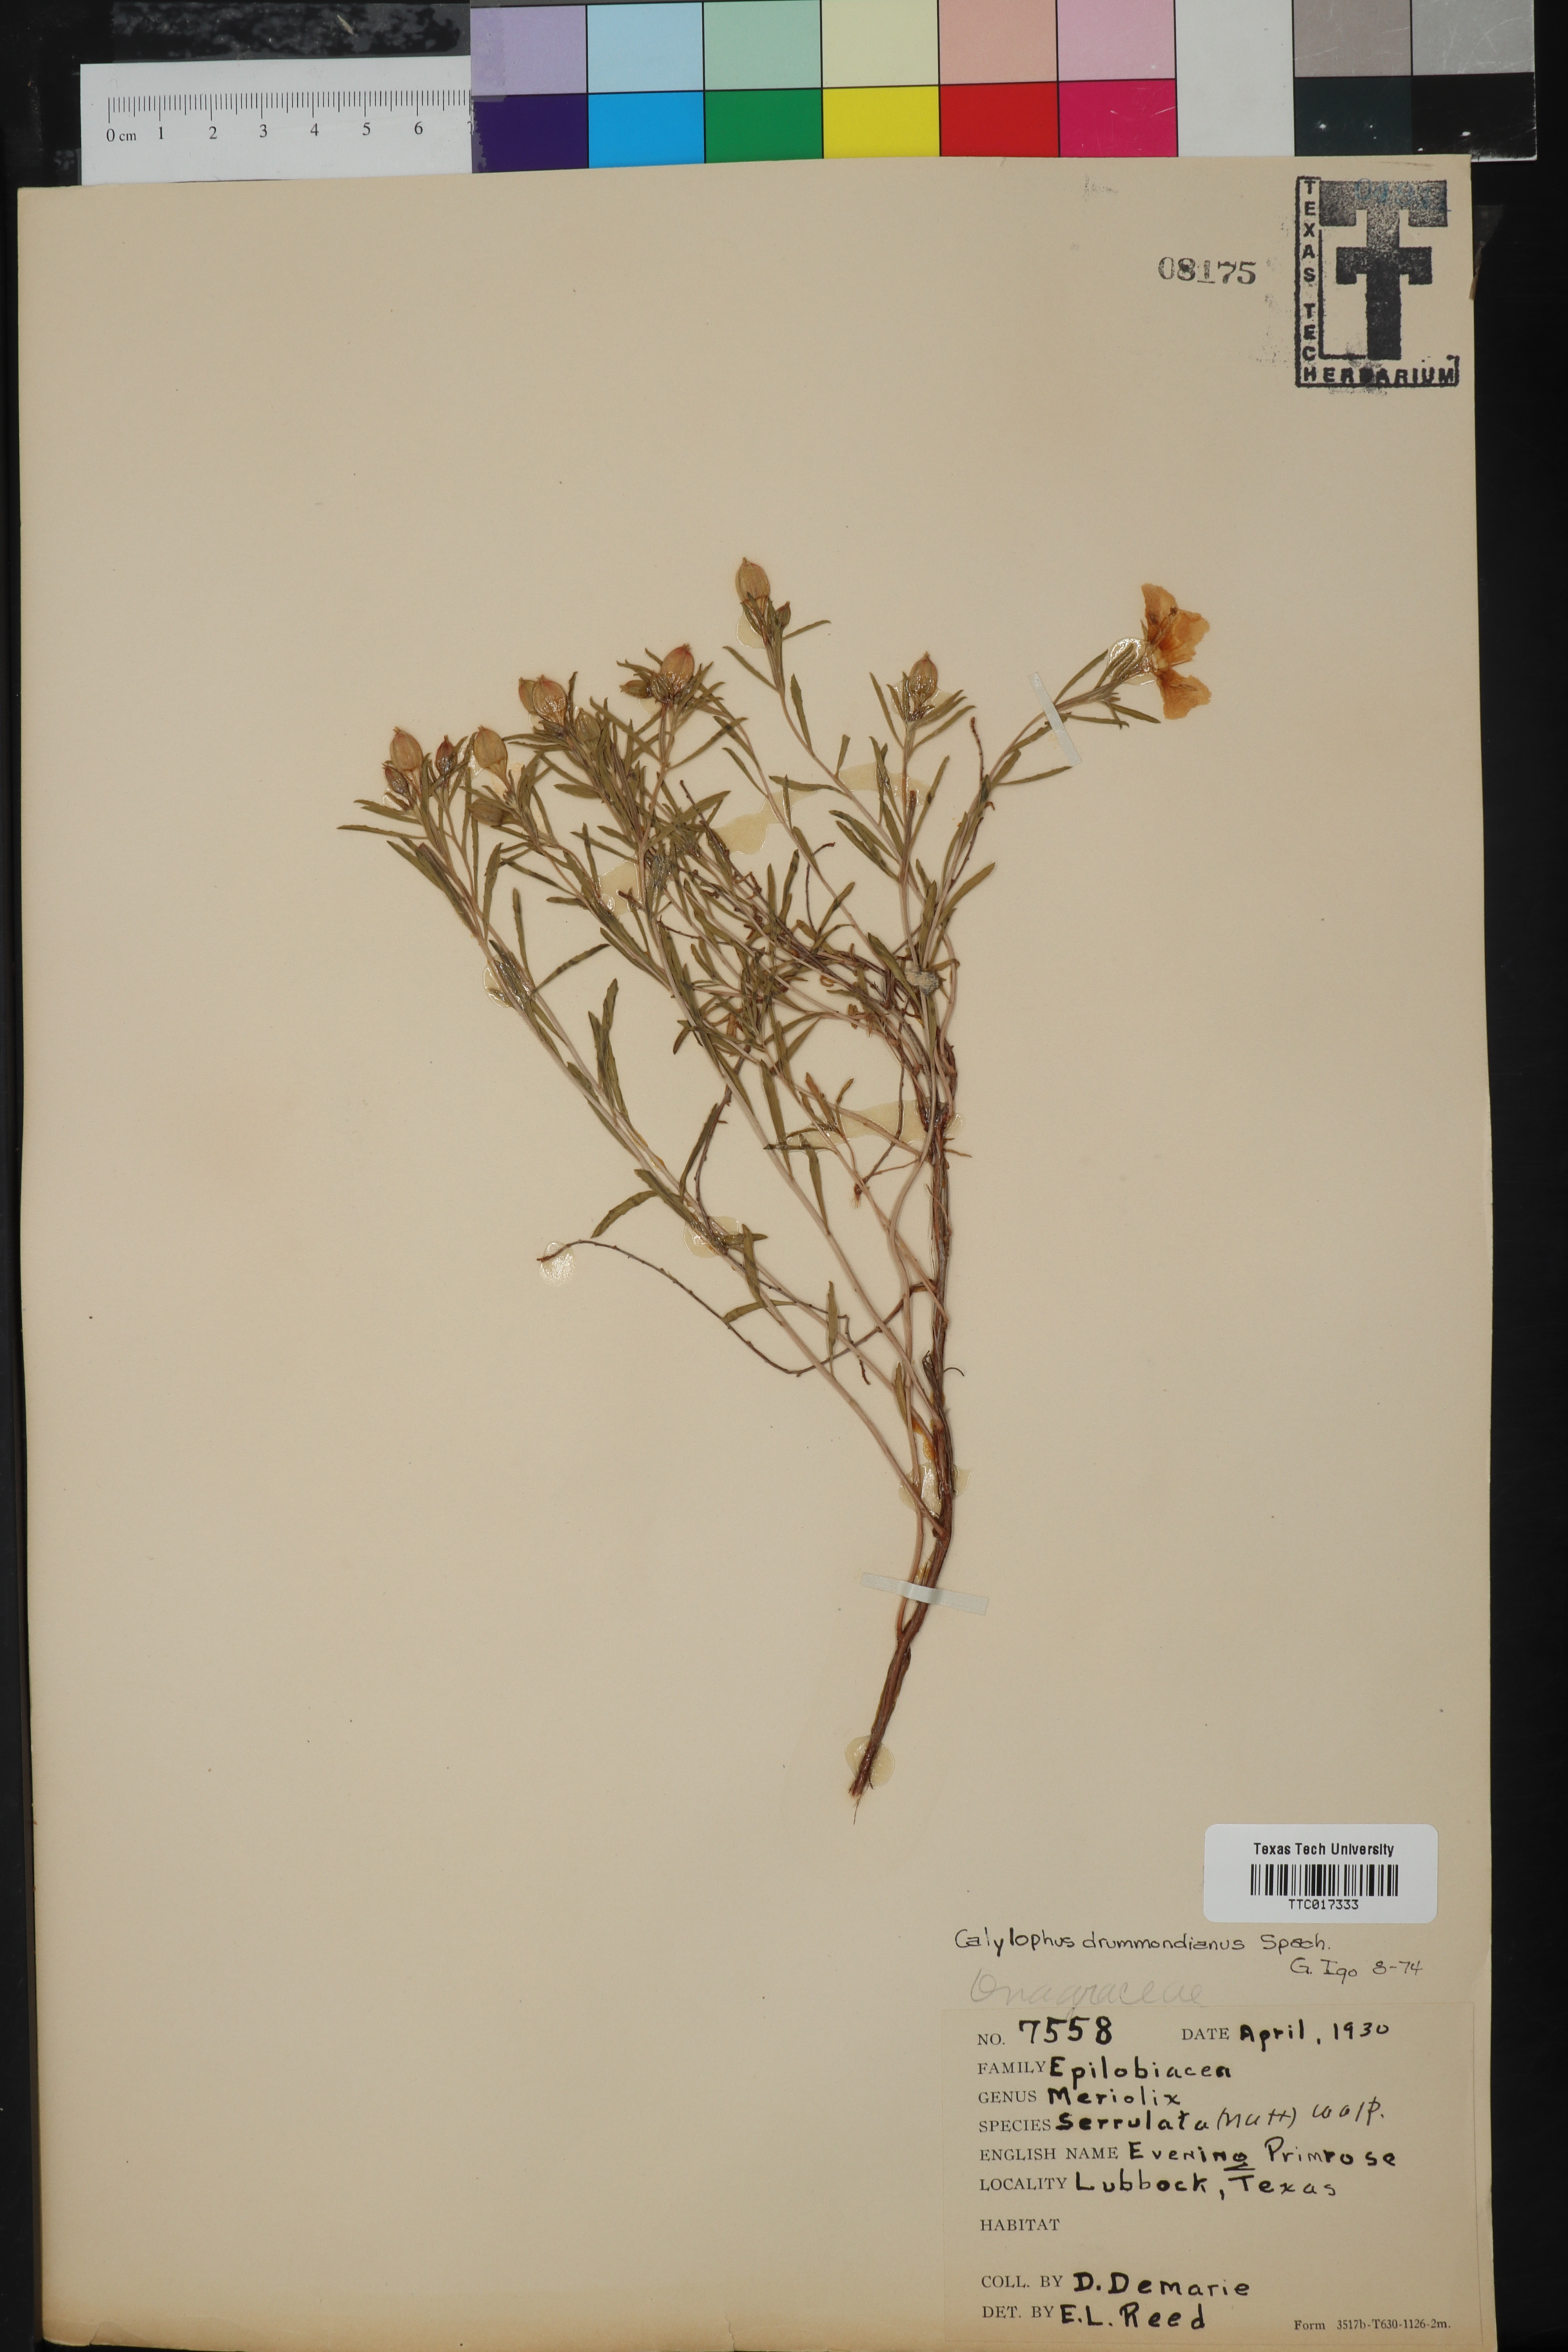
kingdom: Plantae
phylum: Tracheophyta
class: Magnoliopsida
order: Myrtales
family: Onagraceae
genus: Oenothera
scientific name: Oenothera serrulata
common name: Half-shrub calylophus
